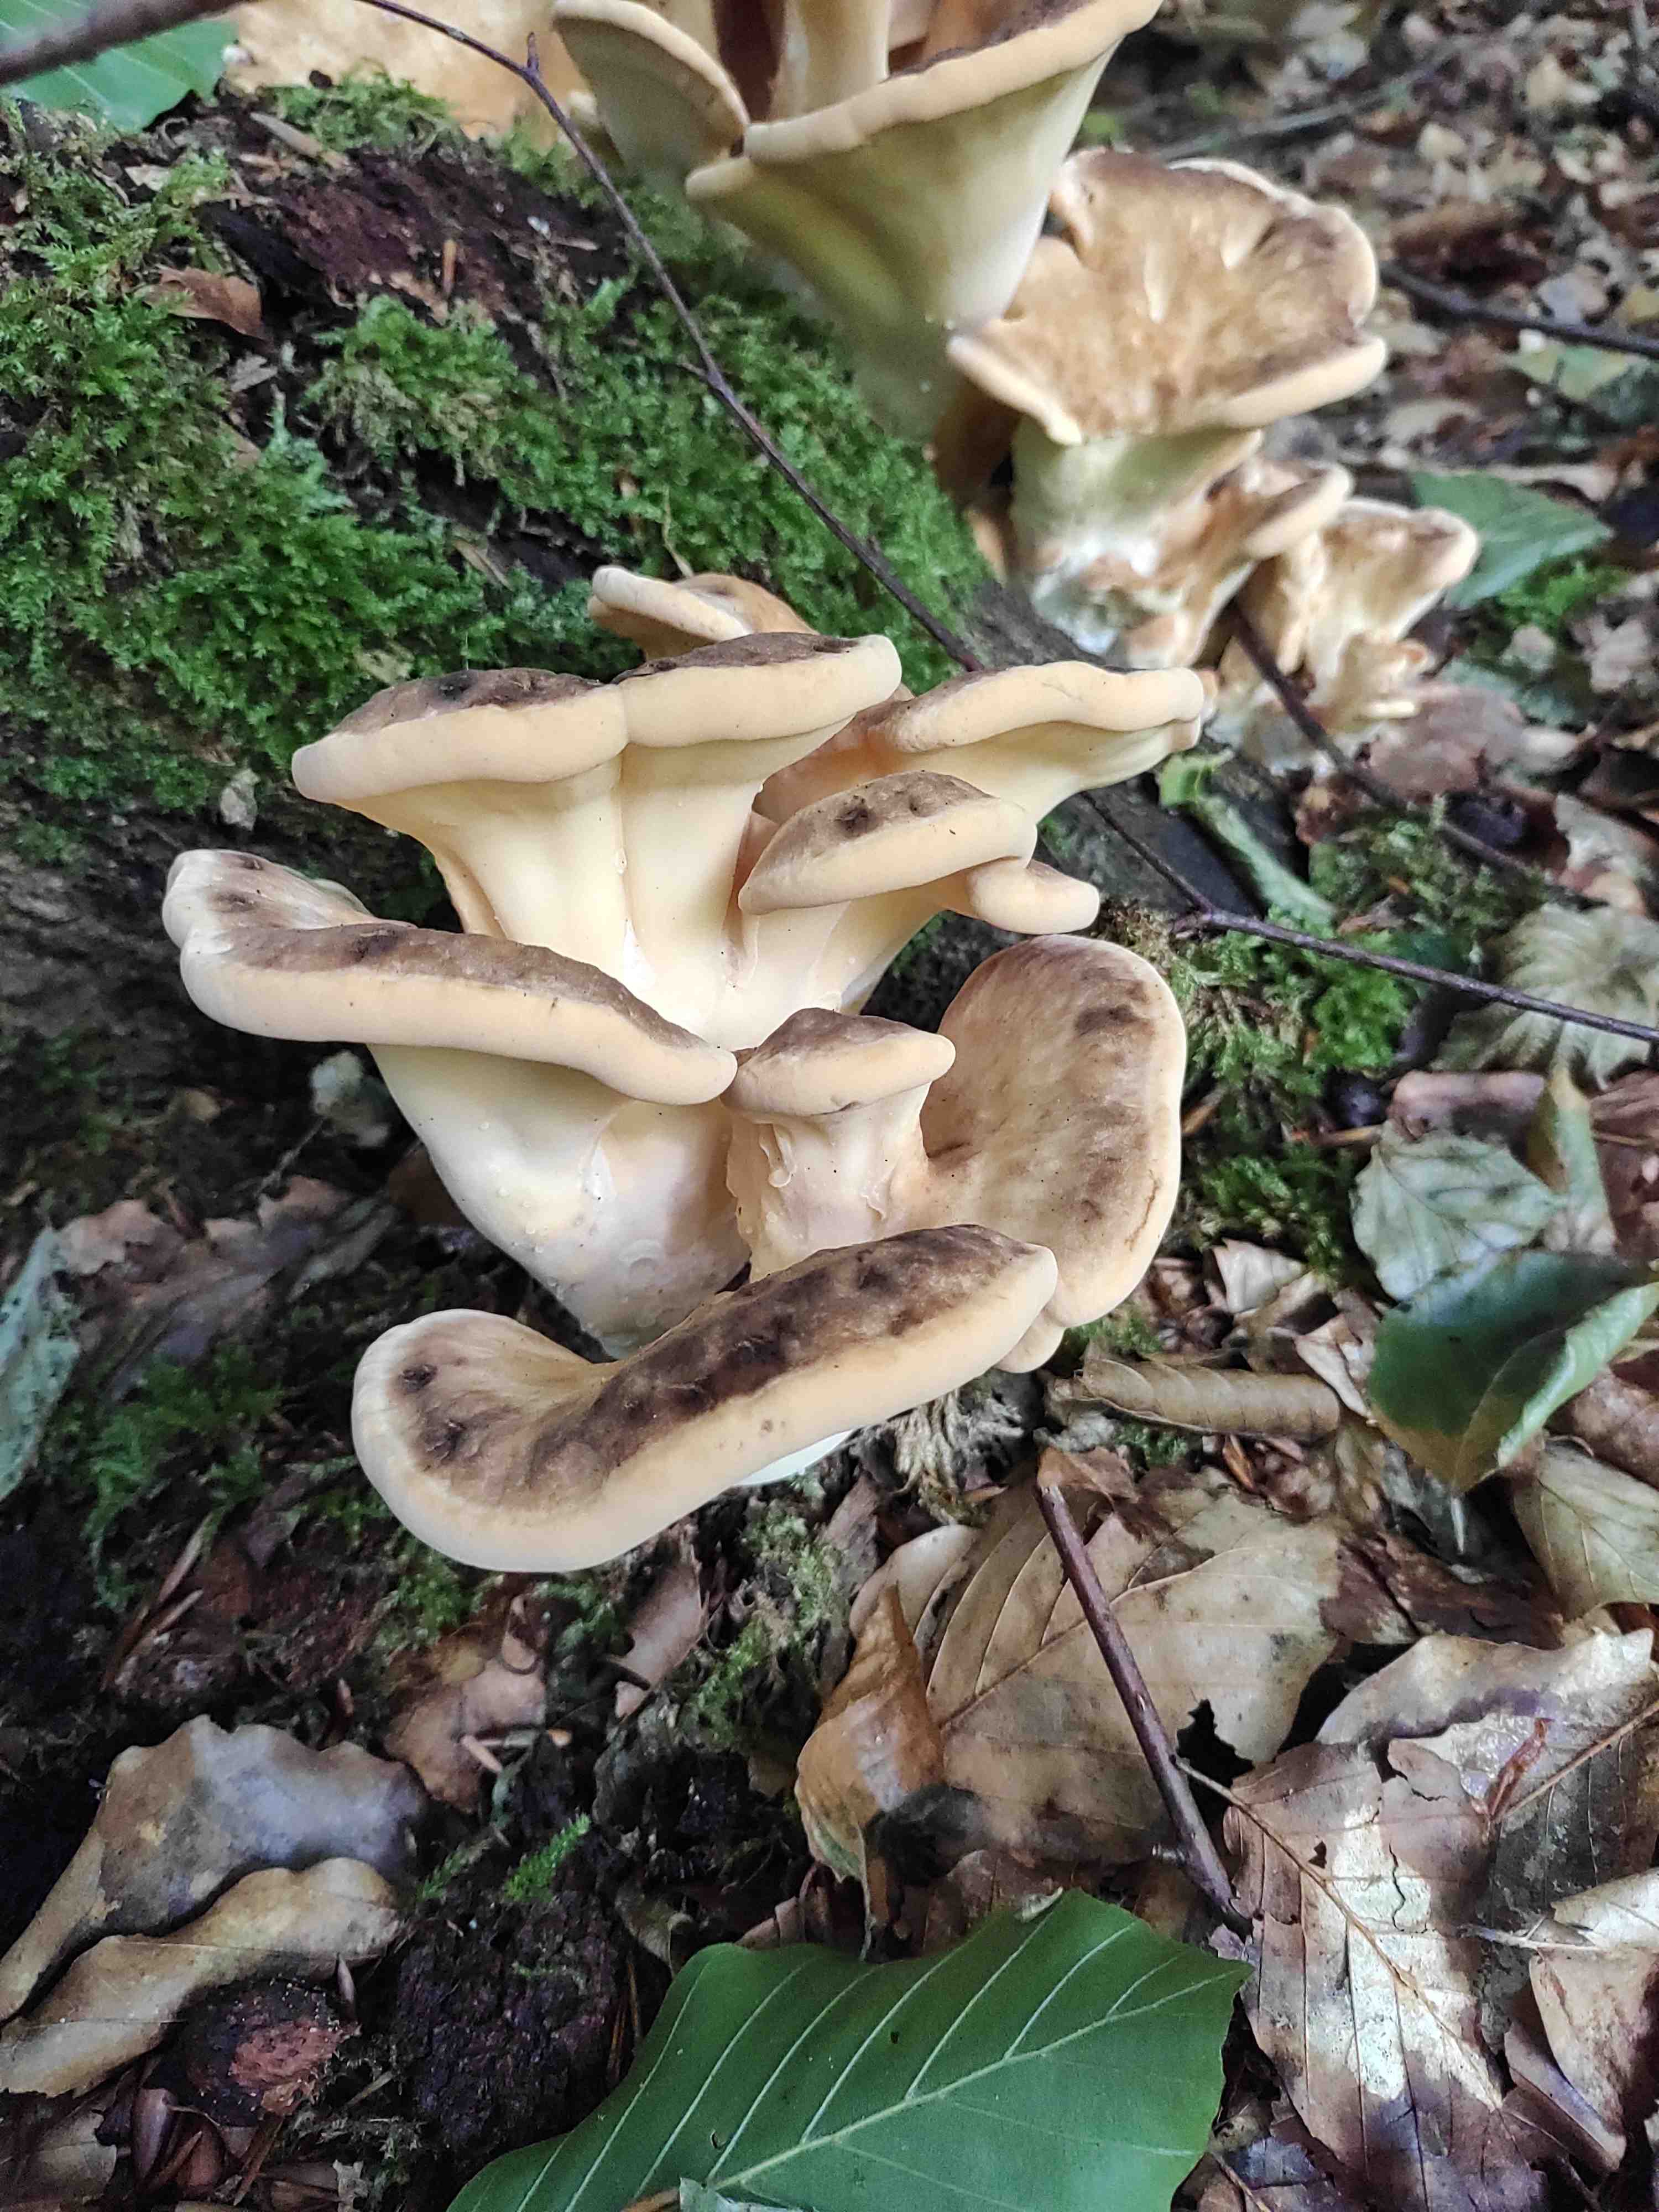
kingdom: Fungi
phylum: Basidiomycota
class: Agaricomycetes
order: Polyporales
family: Meripilaceae
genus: Meripilus
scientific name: Meripilus giganteus
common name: kæmpeporesvamp
